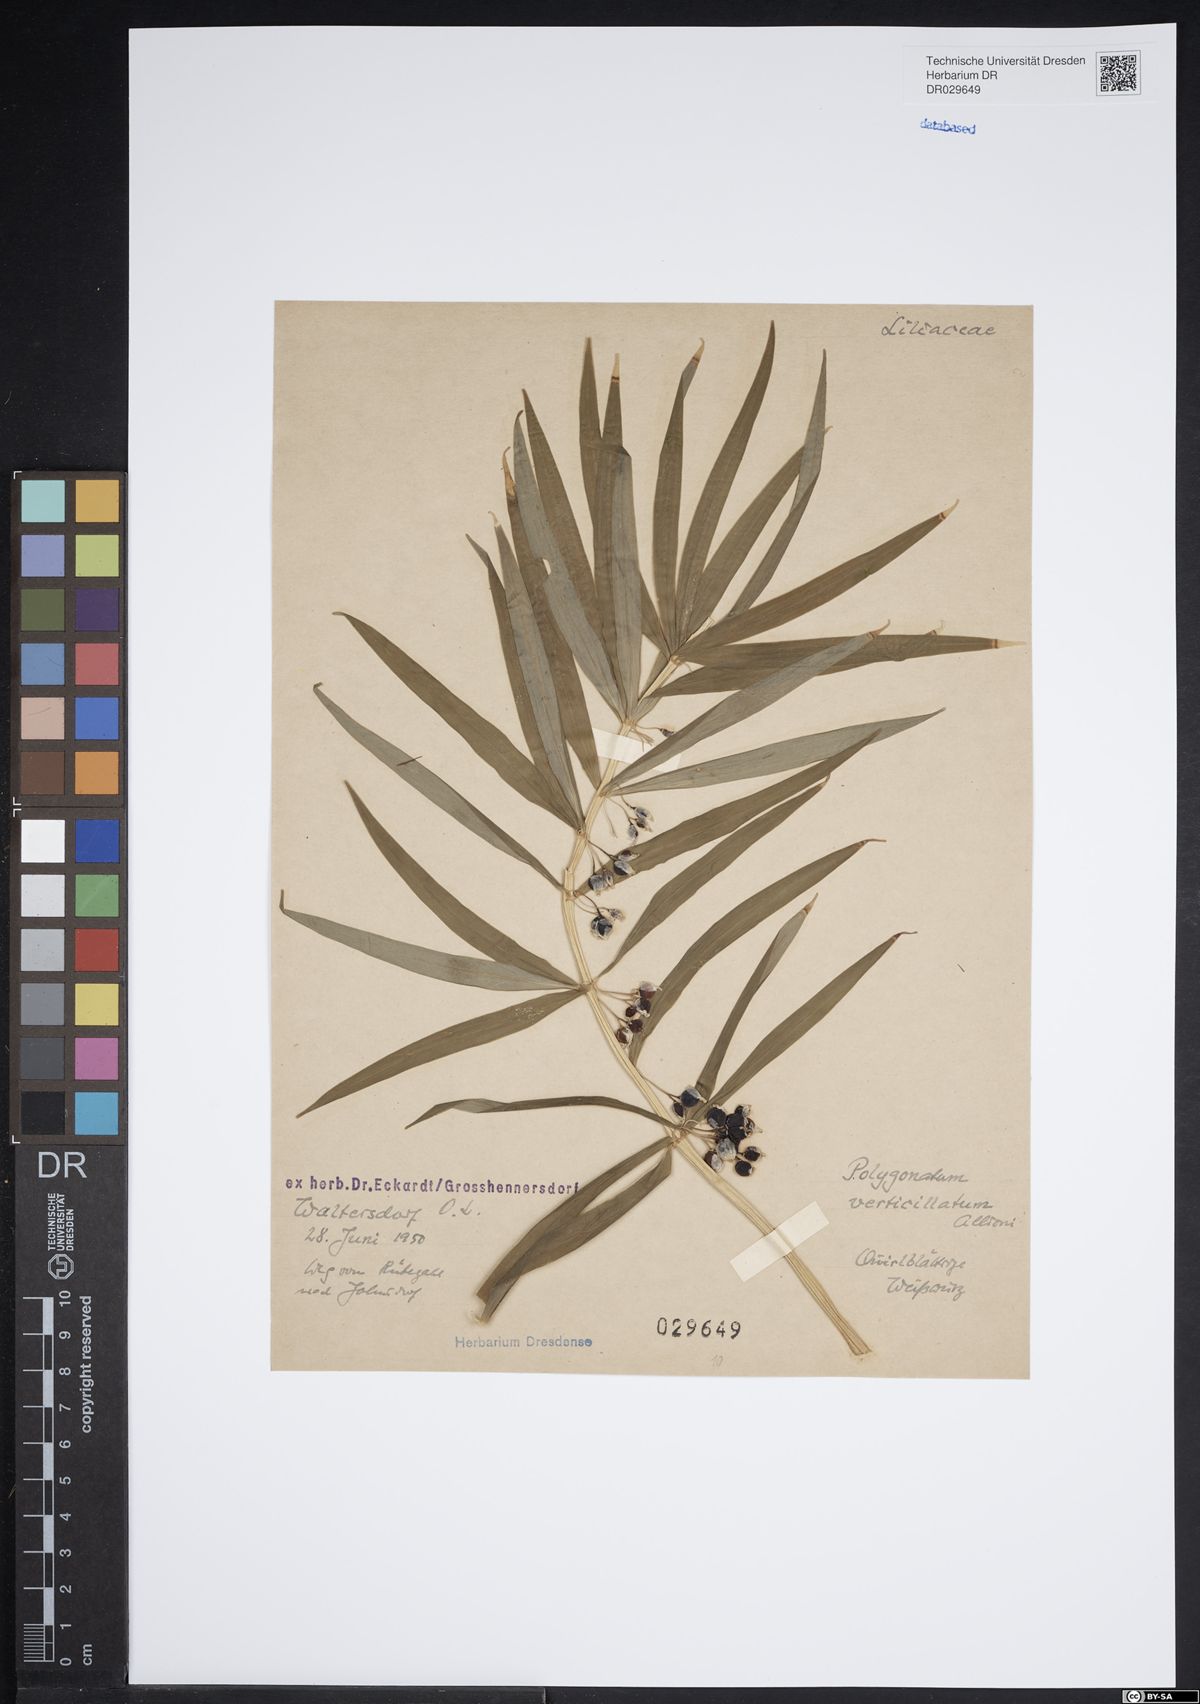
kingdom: Plantae
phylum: Tracheophyta
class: Liliopsida
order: Asparagales
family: Asparagaceae
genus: Polygonatum
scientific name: Polygonatum verticillatum
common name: Whorled solomon's-seal
